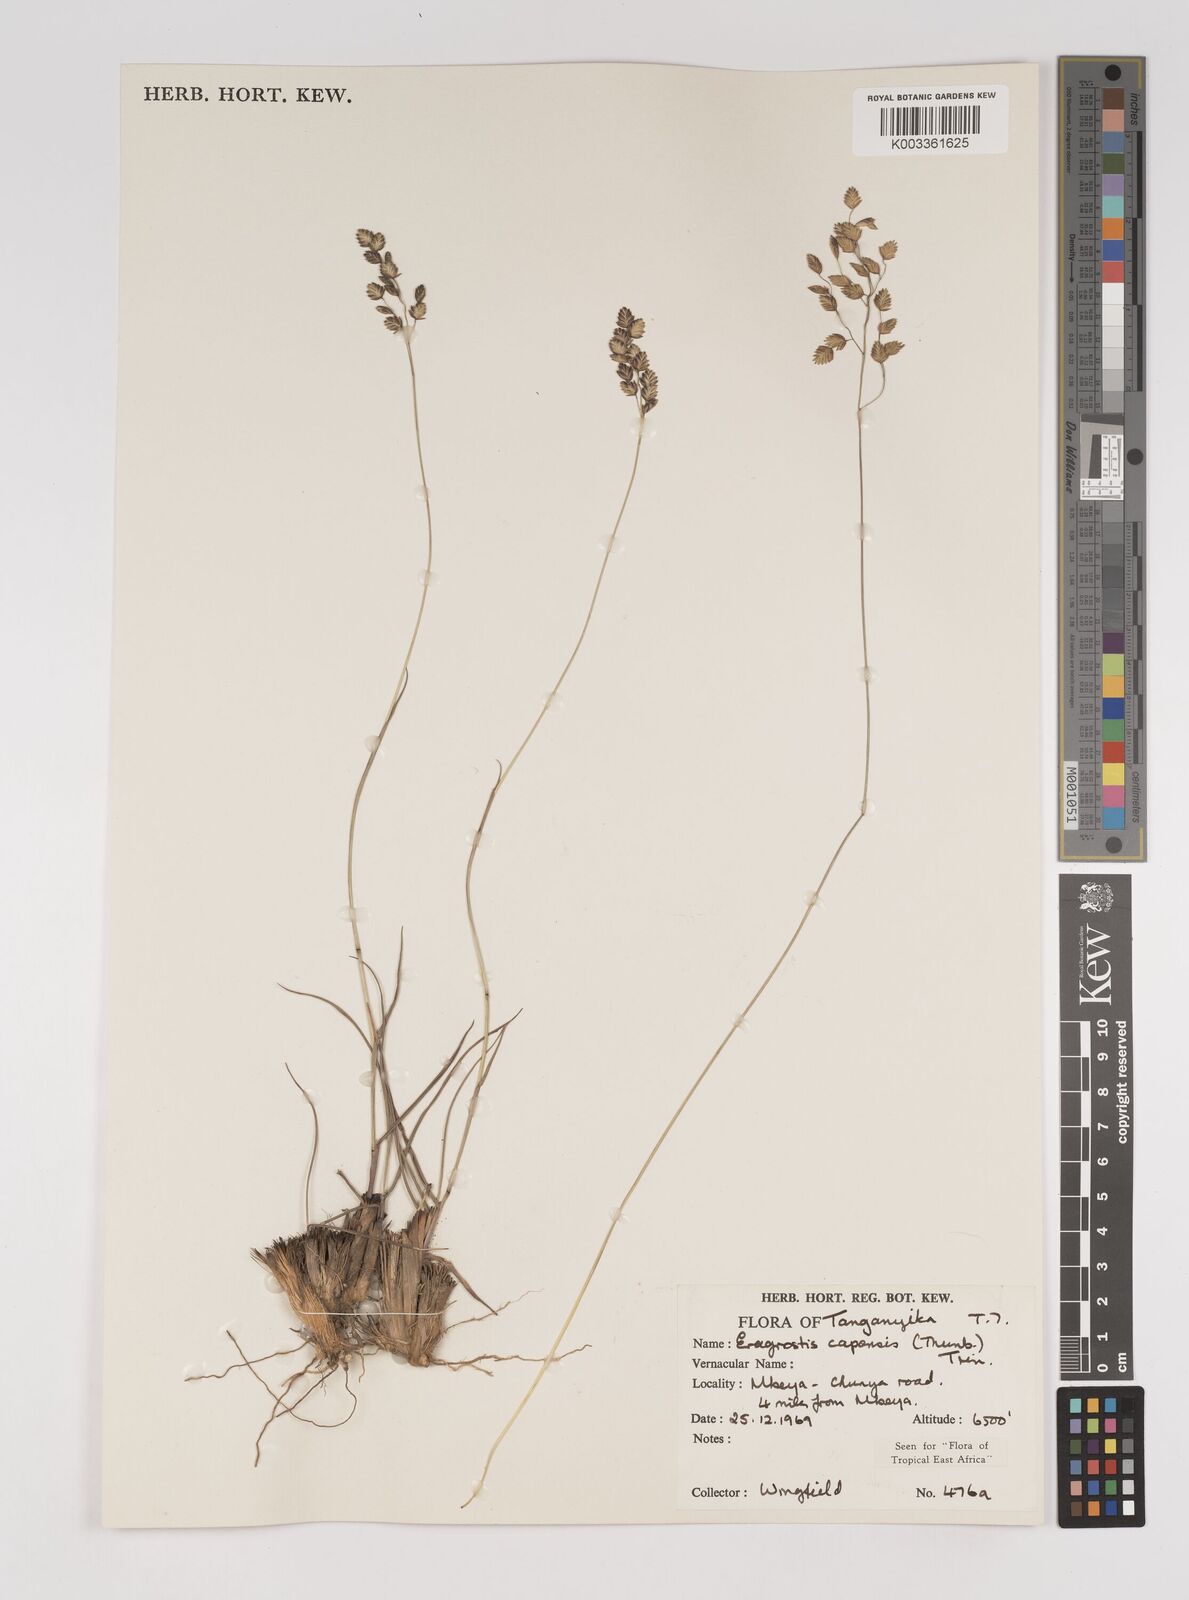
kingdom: Plantae
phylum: Tracheophyta
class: Liliopsida
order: Poales
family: Poaceae
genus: Eragrostis
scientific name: Eragrostis capensis
